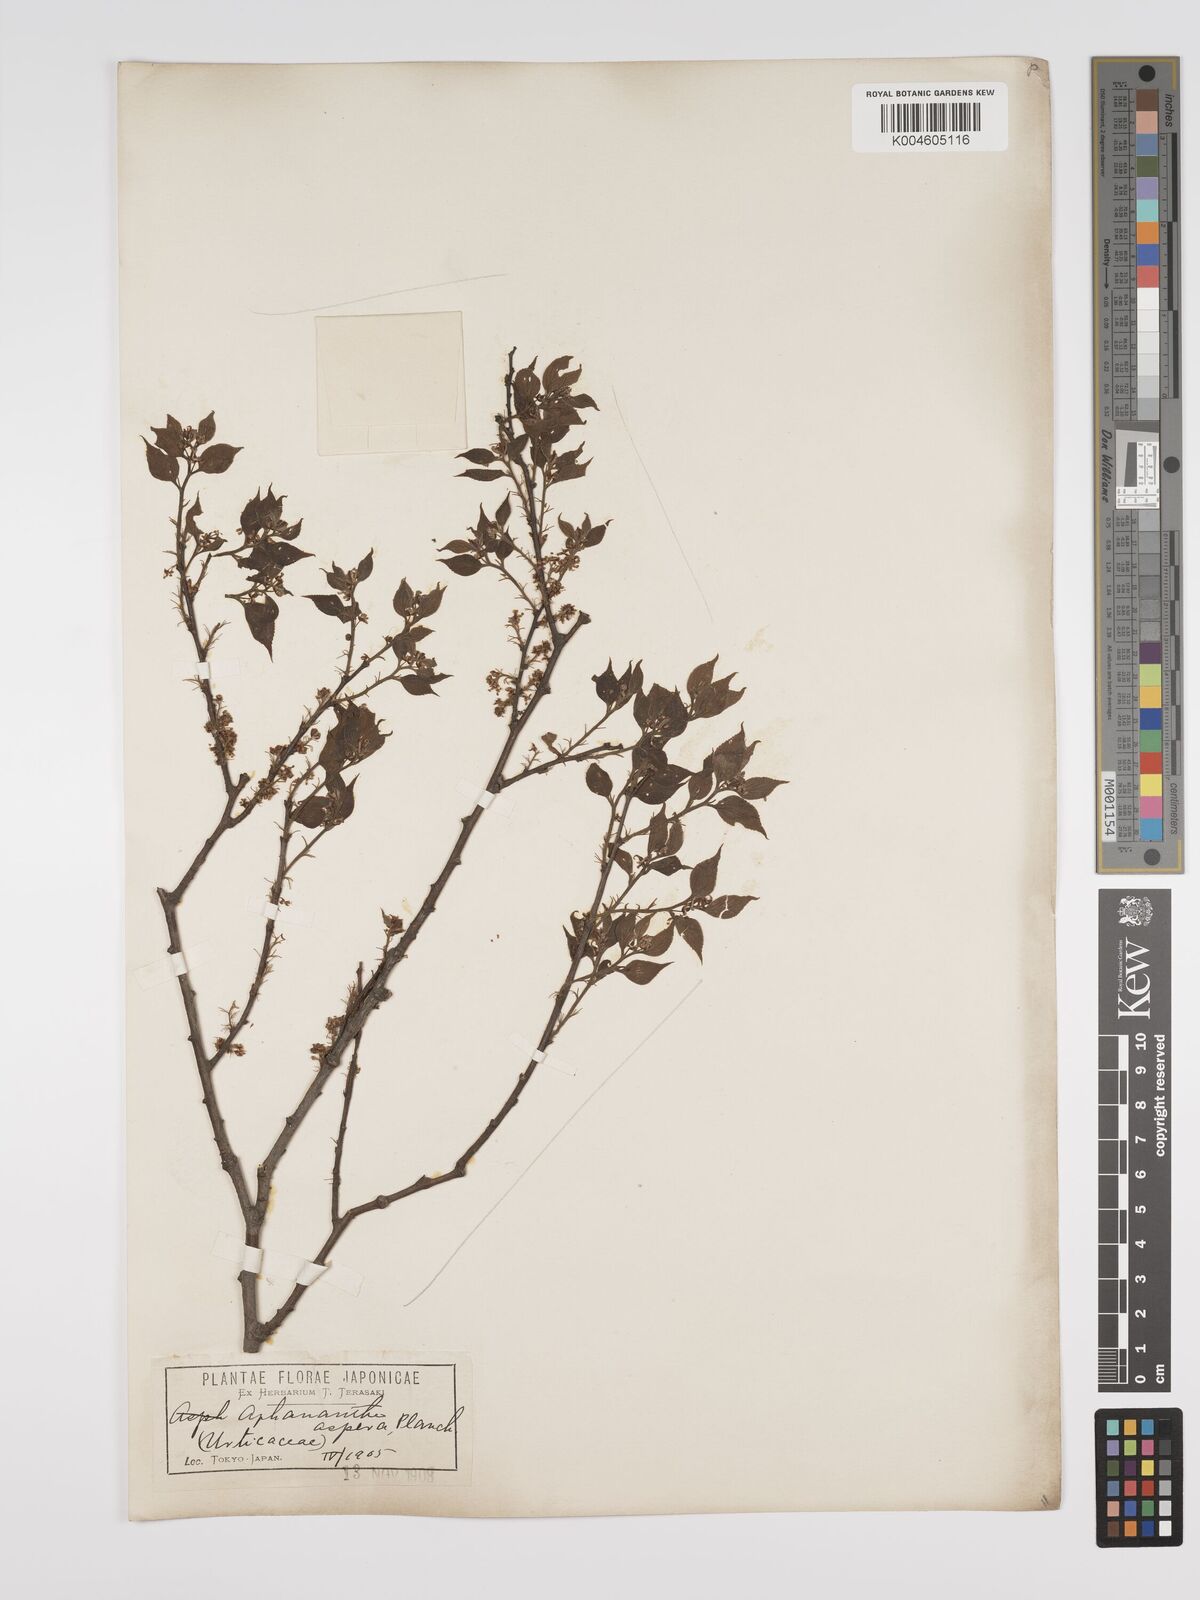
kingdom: Plantae
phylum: Tracheophyta
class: Magnoliopsida
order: Rosales
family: Cannabaceae
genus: Aphananthe
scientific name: Aphananthe aspera
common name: Mukutree
